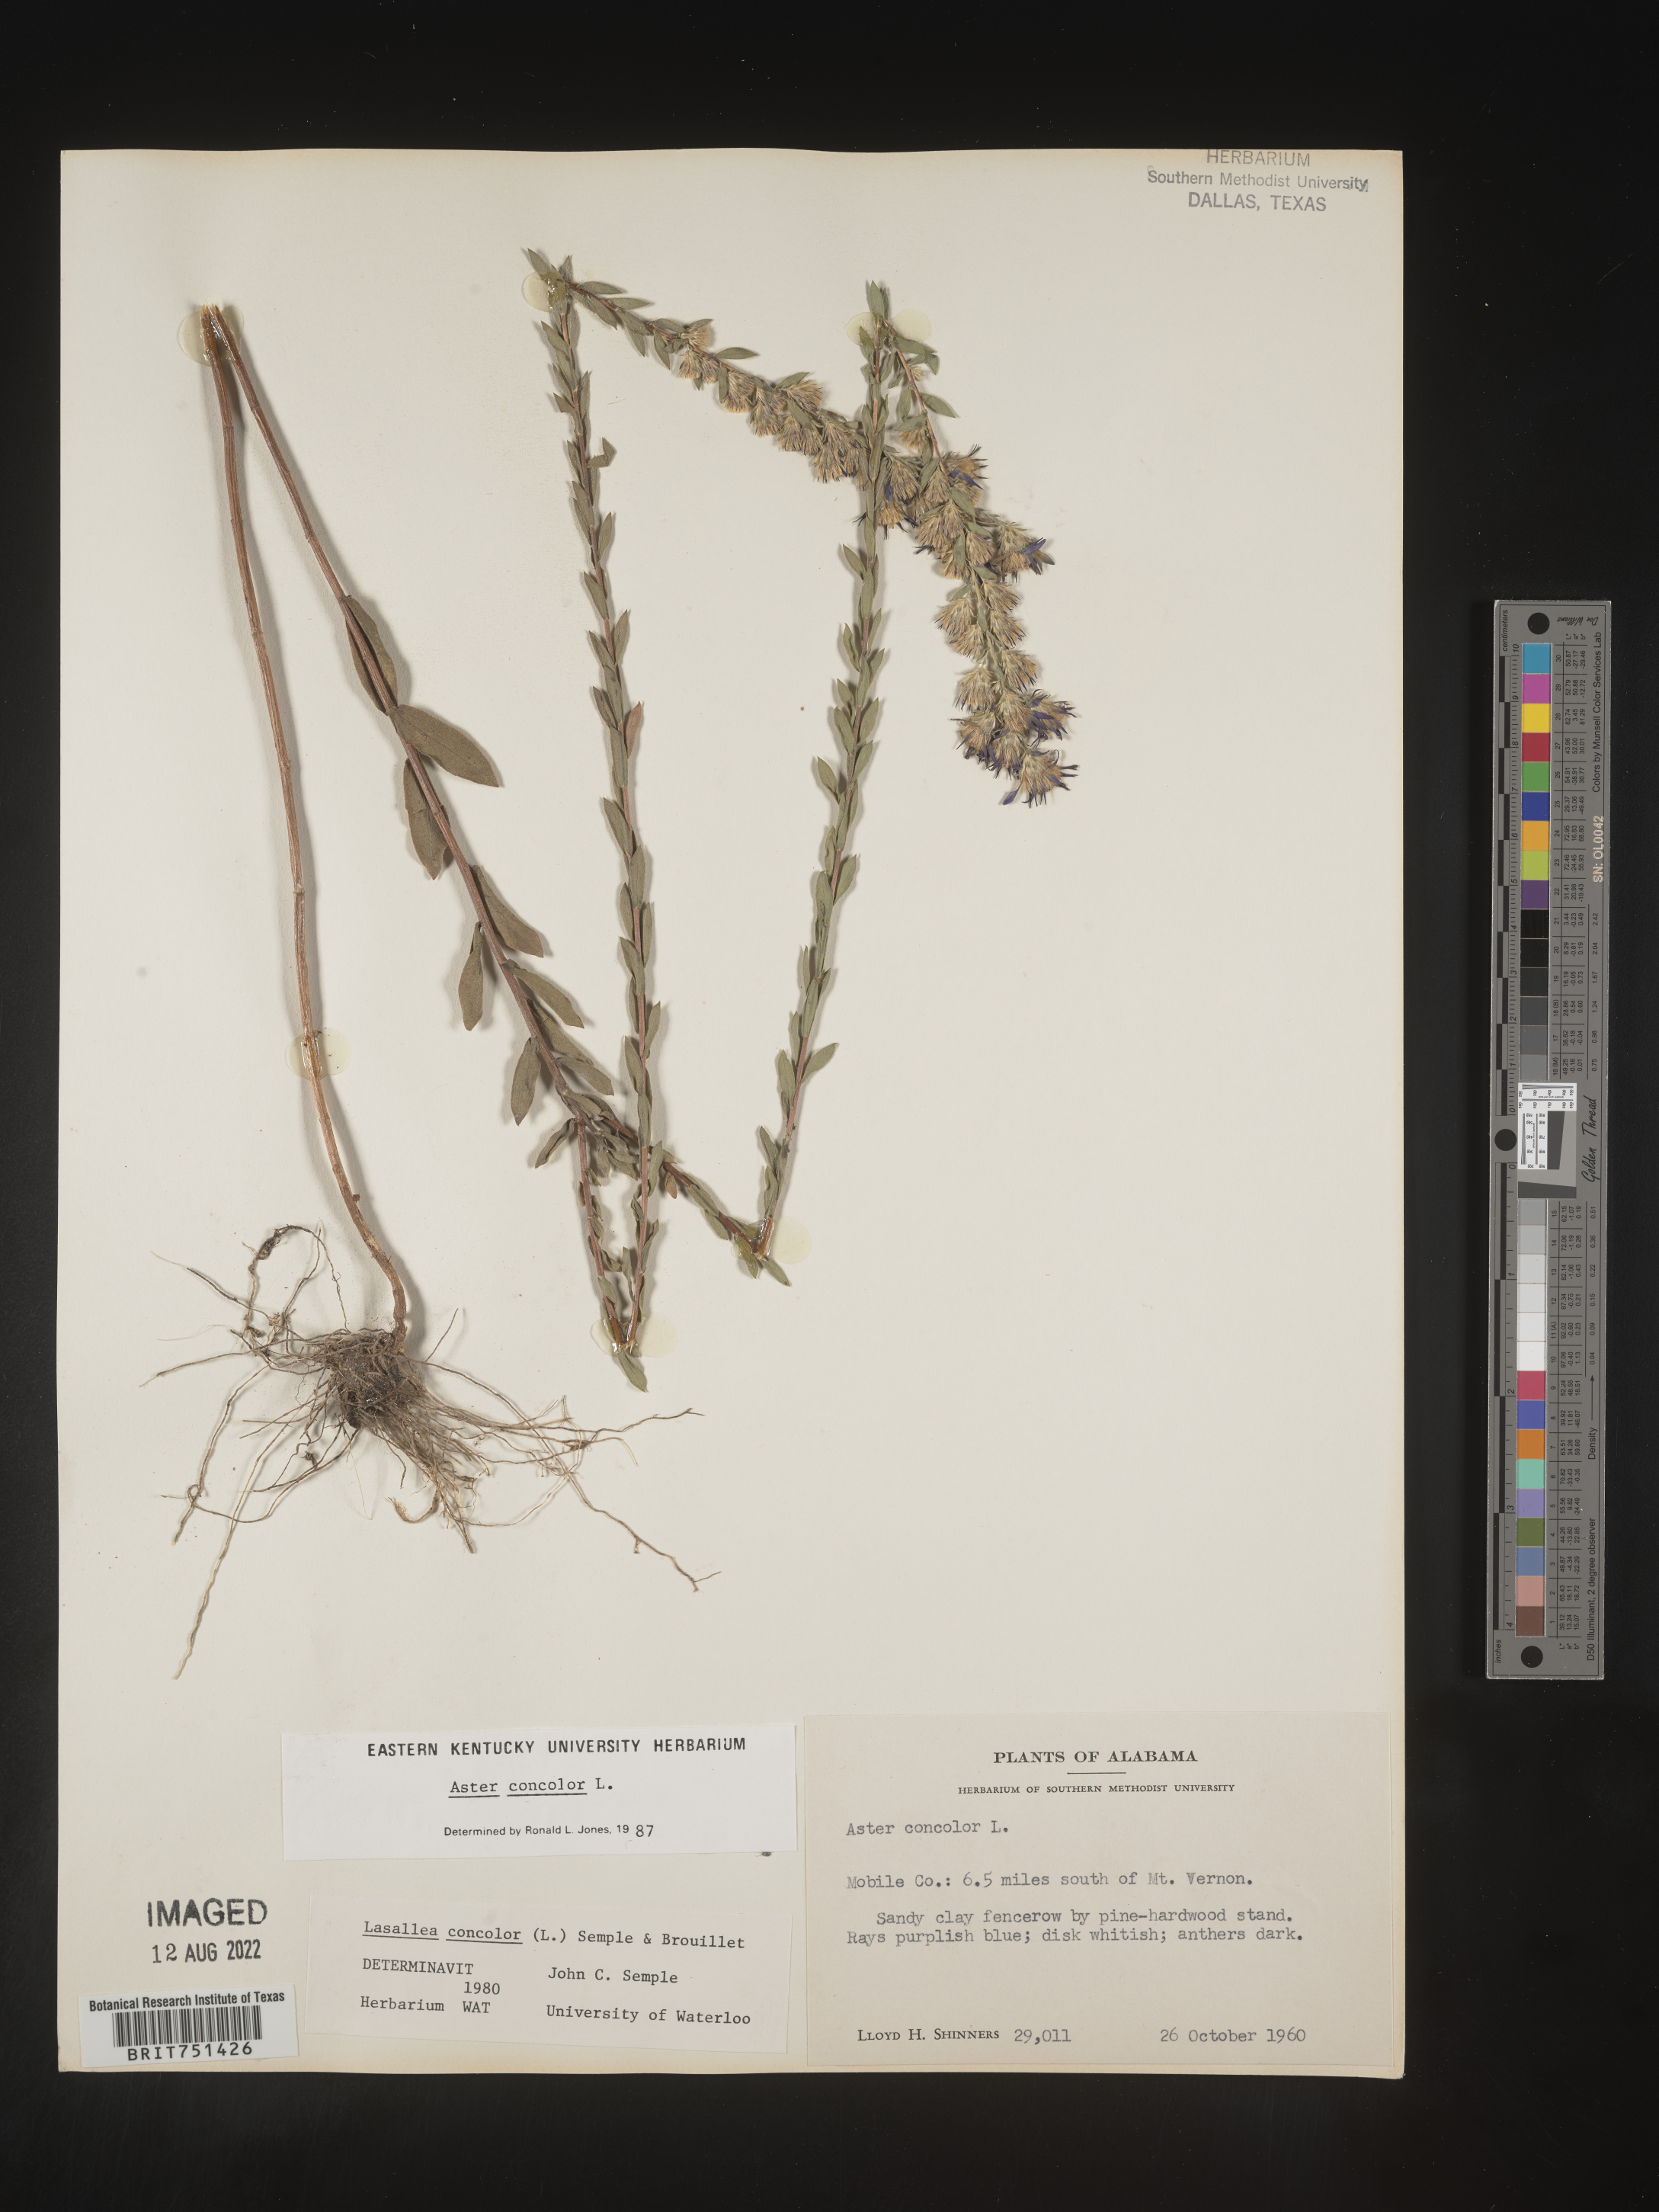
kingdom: Plantae
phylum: Tracheophyta
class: Magnoliopsida
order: Asterales
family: Asteraceae
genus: Symphyotrichum
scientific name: Symphyotrichum concolor
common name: Eastern silver aster
